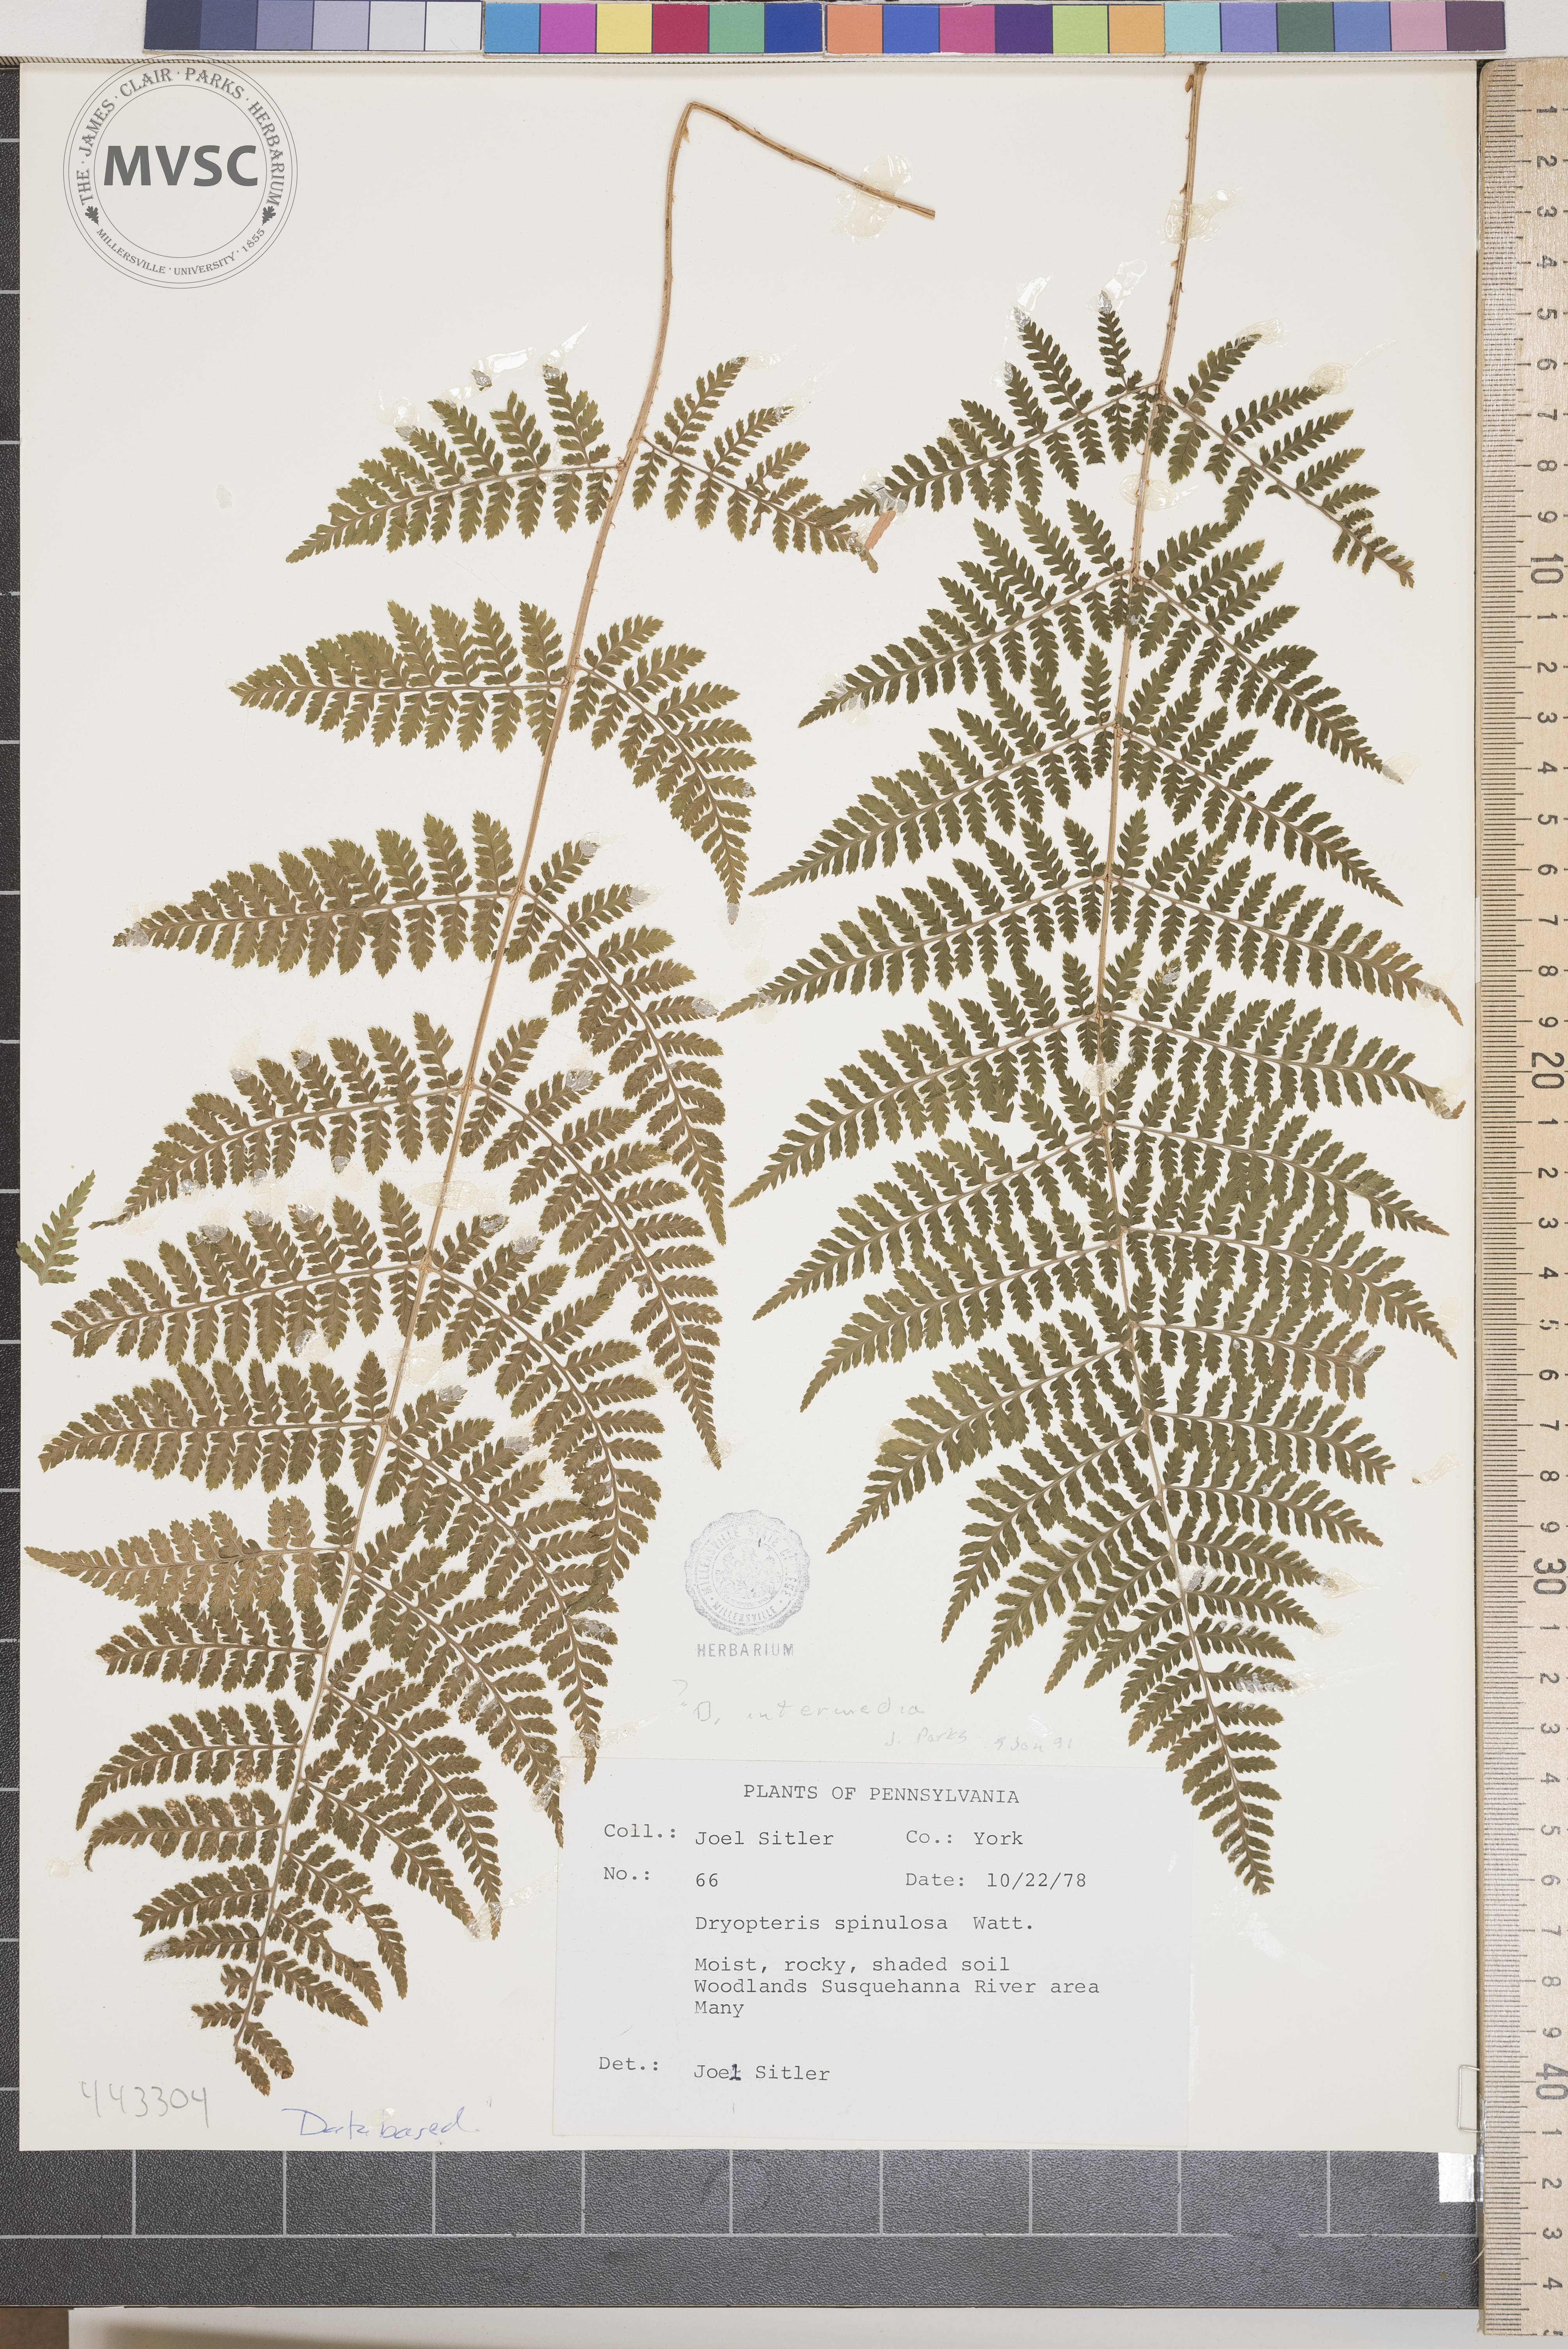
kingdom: Plantae
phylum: Tracheophyta
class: Polypodiopsida
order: Polypodiales
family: Dryopteridaceae
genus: Dryopteris
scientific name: Dryopteris intermedia
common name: Evergreen wood fern
